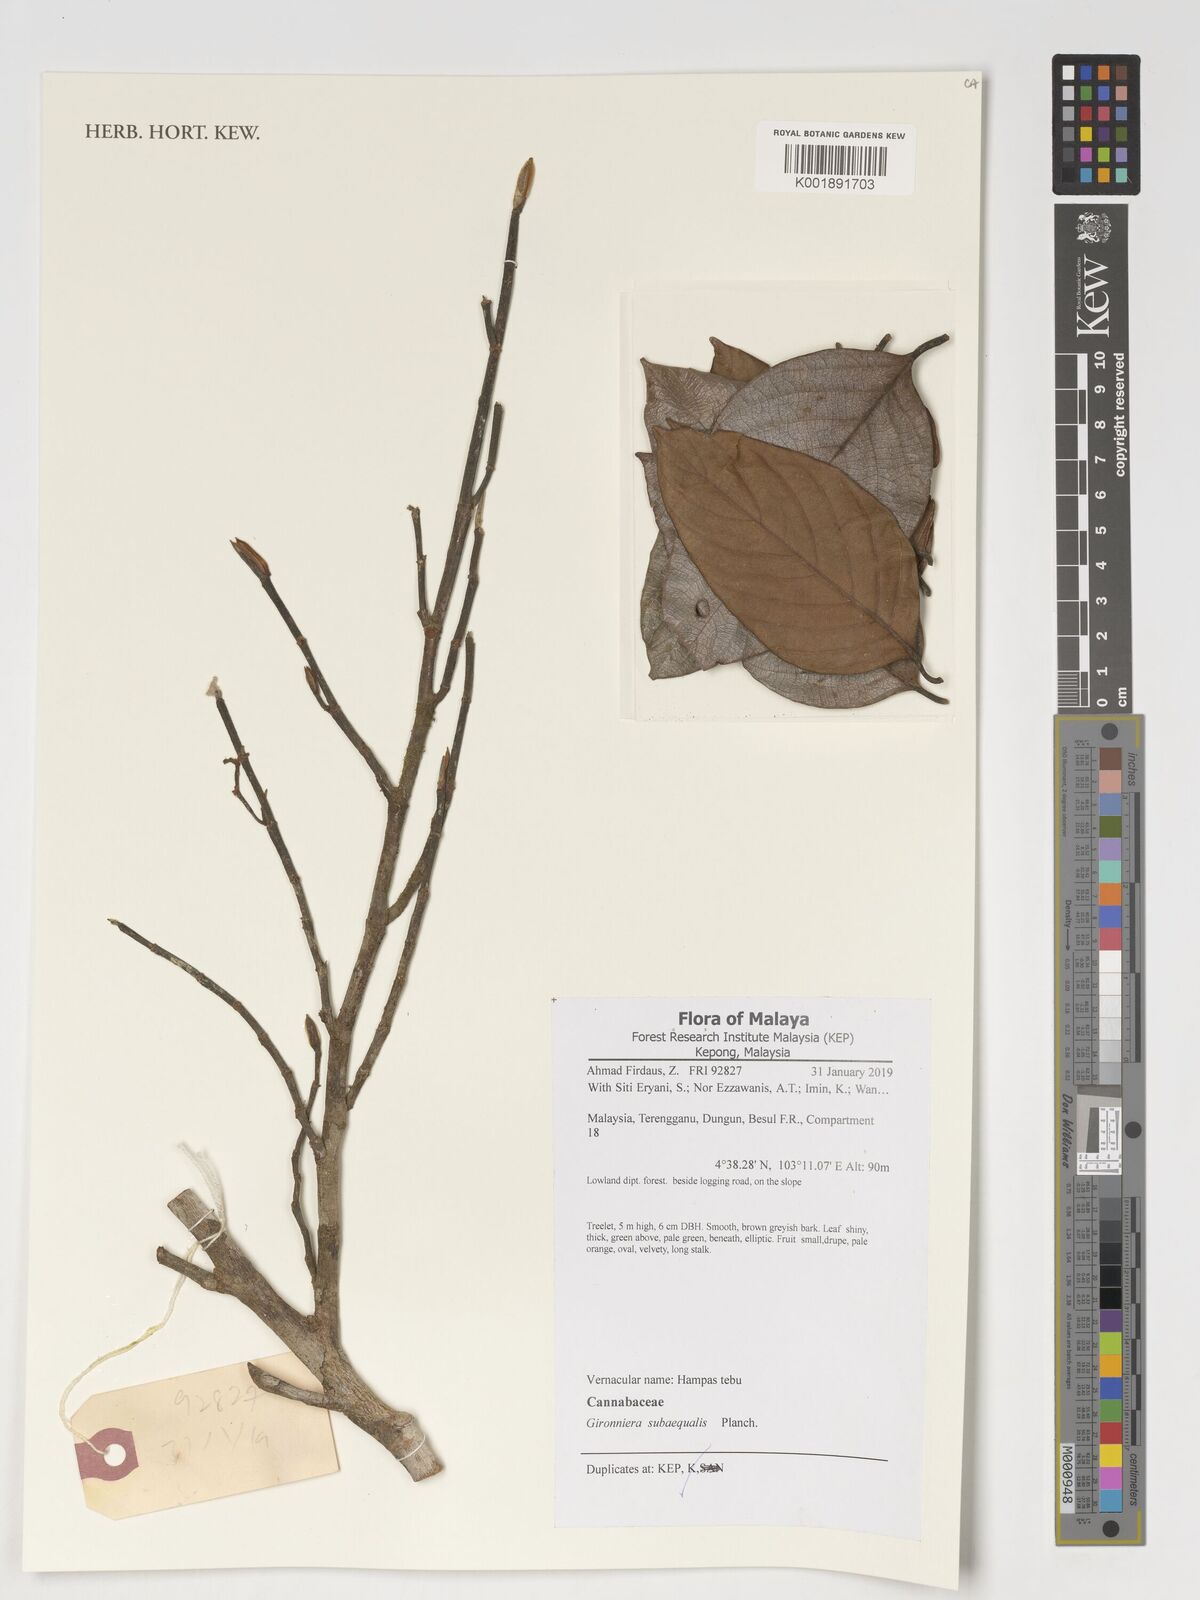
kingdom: Plantae
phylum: Tracheophyta
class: Magnoliopsida
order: Rosales
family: Cannabaceae
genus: Gironniera
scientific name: Gironniera subaequalis
